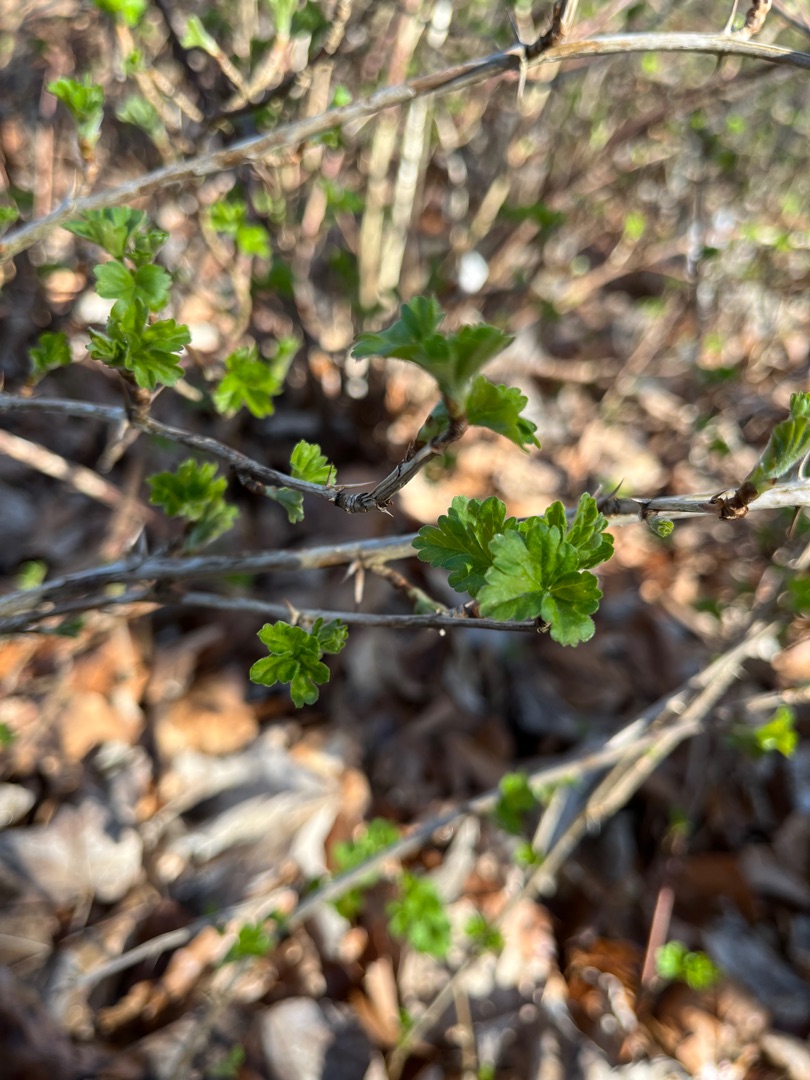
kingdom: Plantae
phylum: Tracheophyta
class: Magnoliopsida
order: Saxifragales
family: Grossulariaceae
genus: Ribes
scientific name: Ribes uva-crispa
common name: Stikkelsbær
